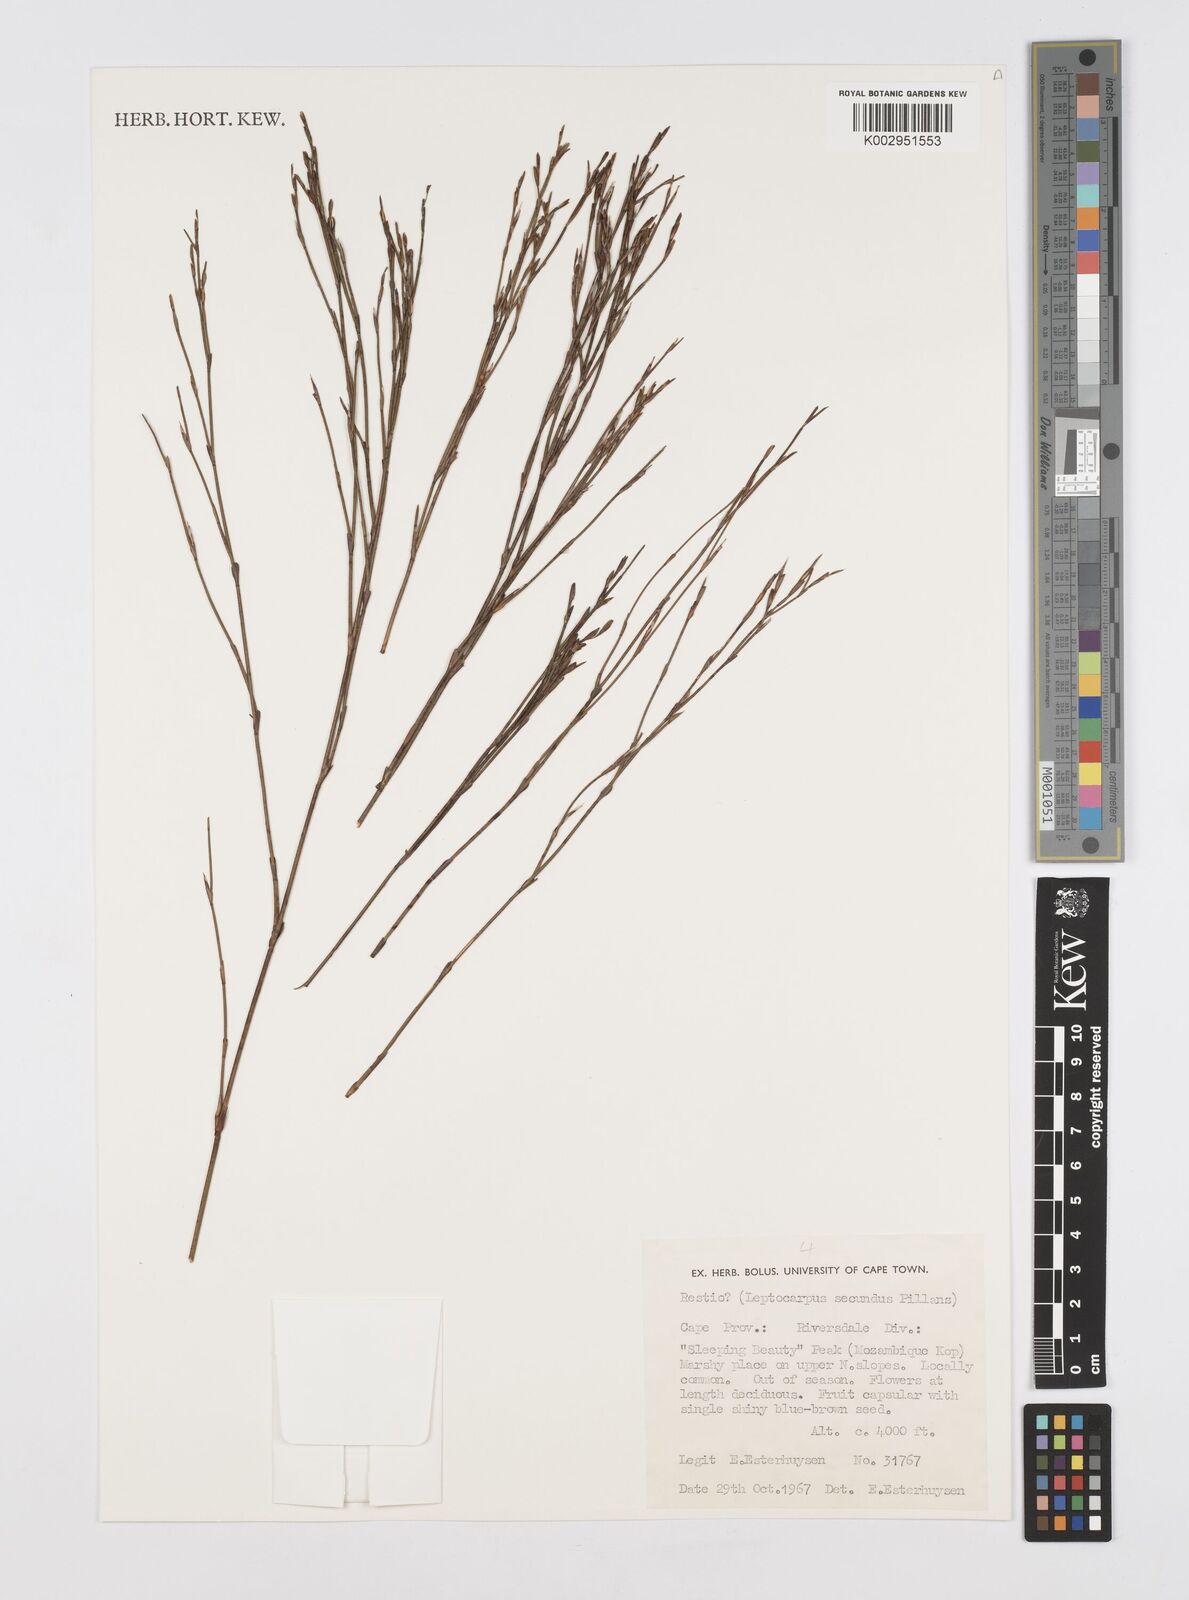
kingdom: Plantae
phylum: Tracheophyta
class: Liliopsida
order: Poales
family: Restionaceae
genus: Restio
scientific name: Restio secundus
